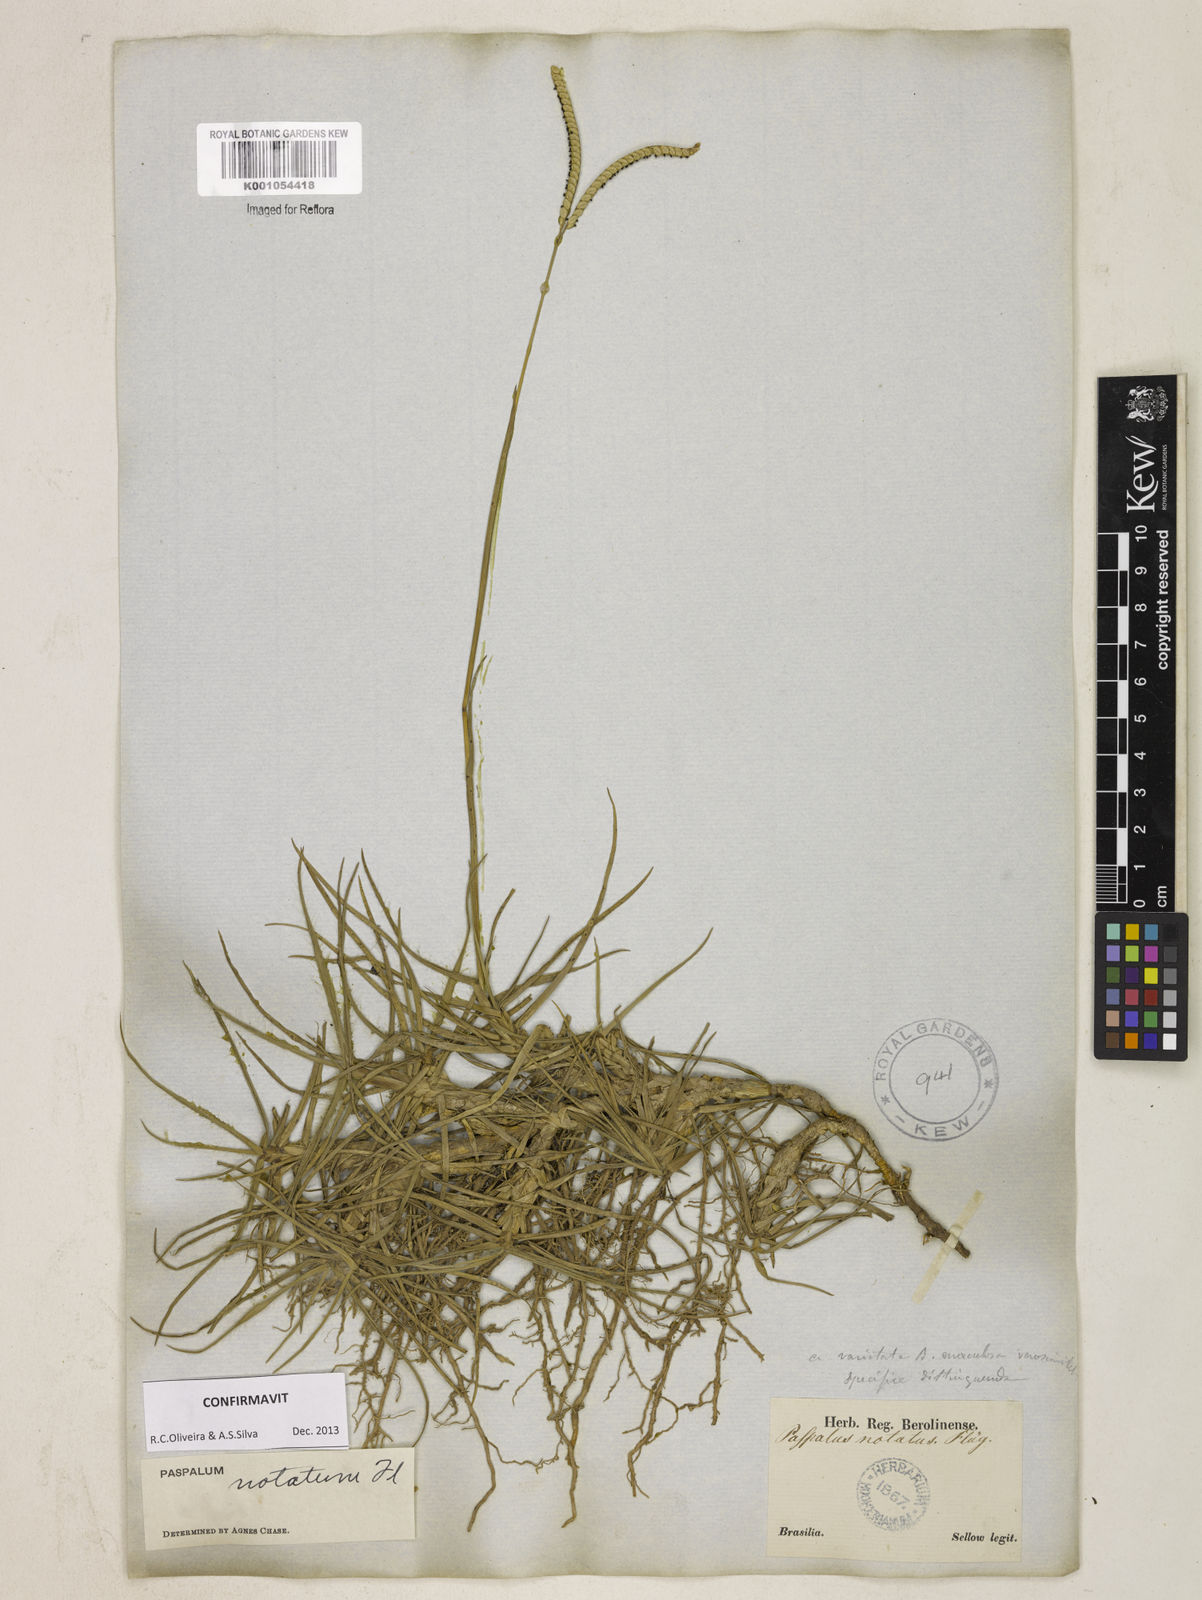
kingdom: Plantae
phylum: Tracheophyta
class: Liliopsida
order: Poales
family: Poaceae
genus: Paspalum
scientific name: Paspalum
